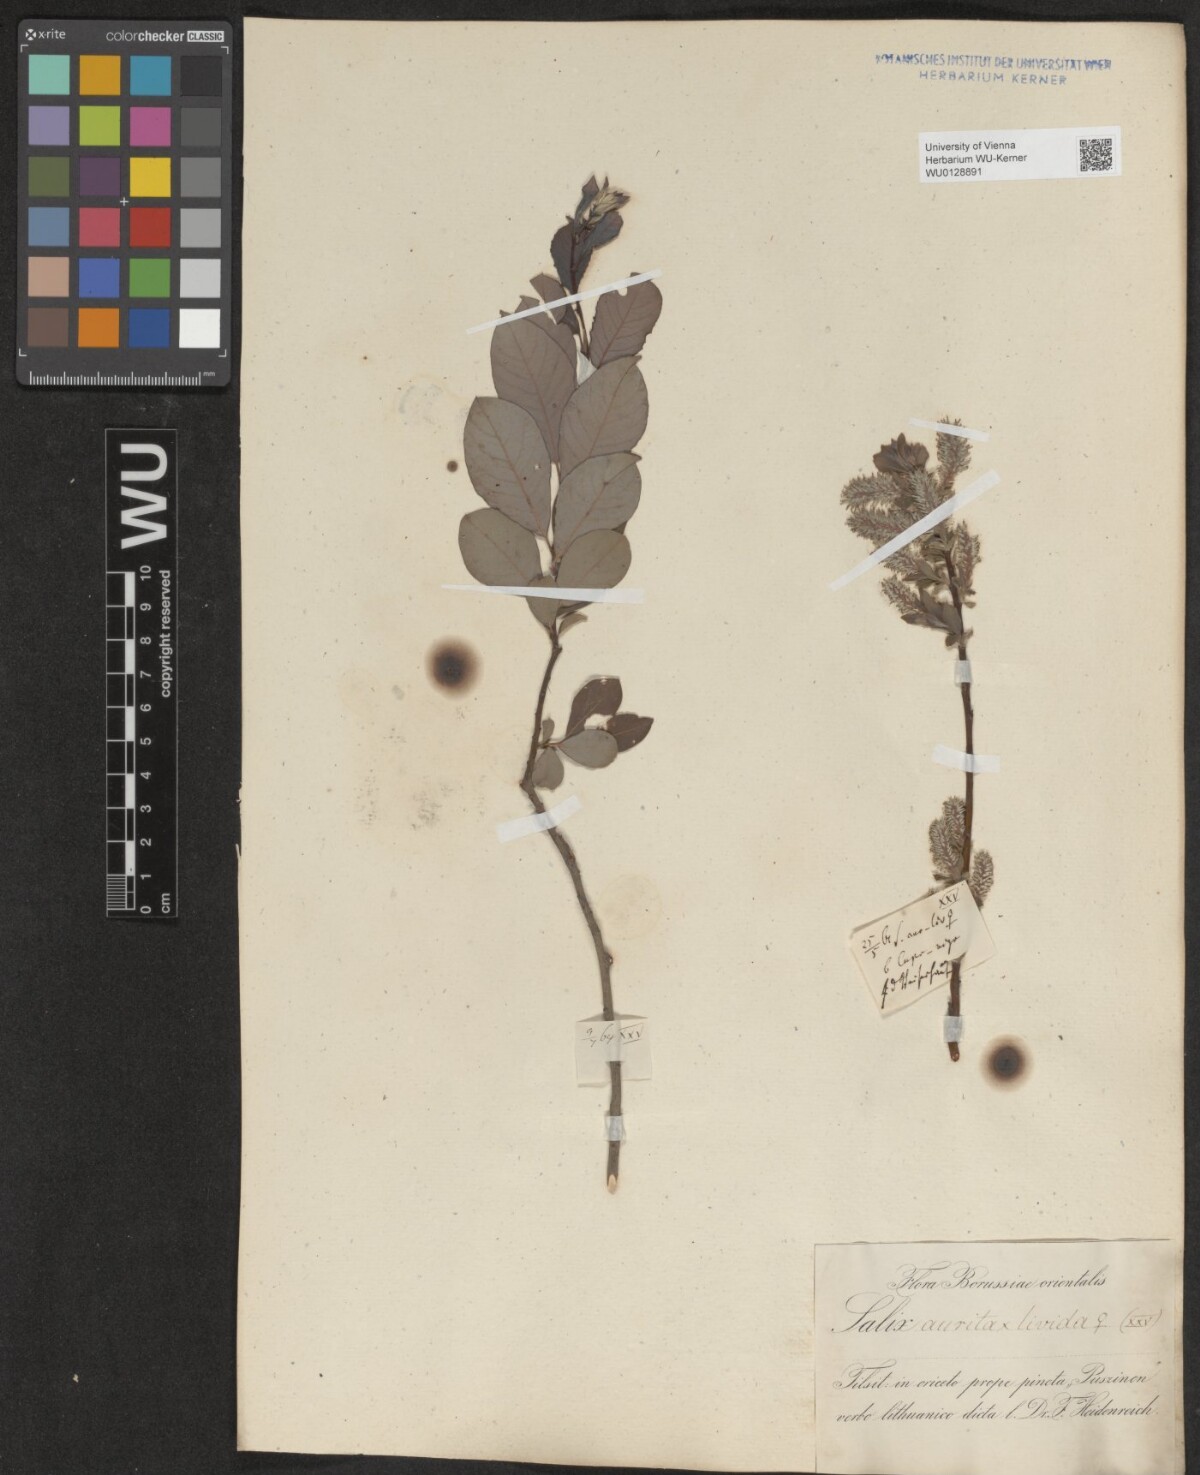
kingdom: Plantae
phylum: Tracheophyta
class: Magnoliopsida
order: Malpighiales
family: Salicaceae
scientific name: Salicaceae
